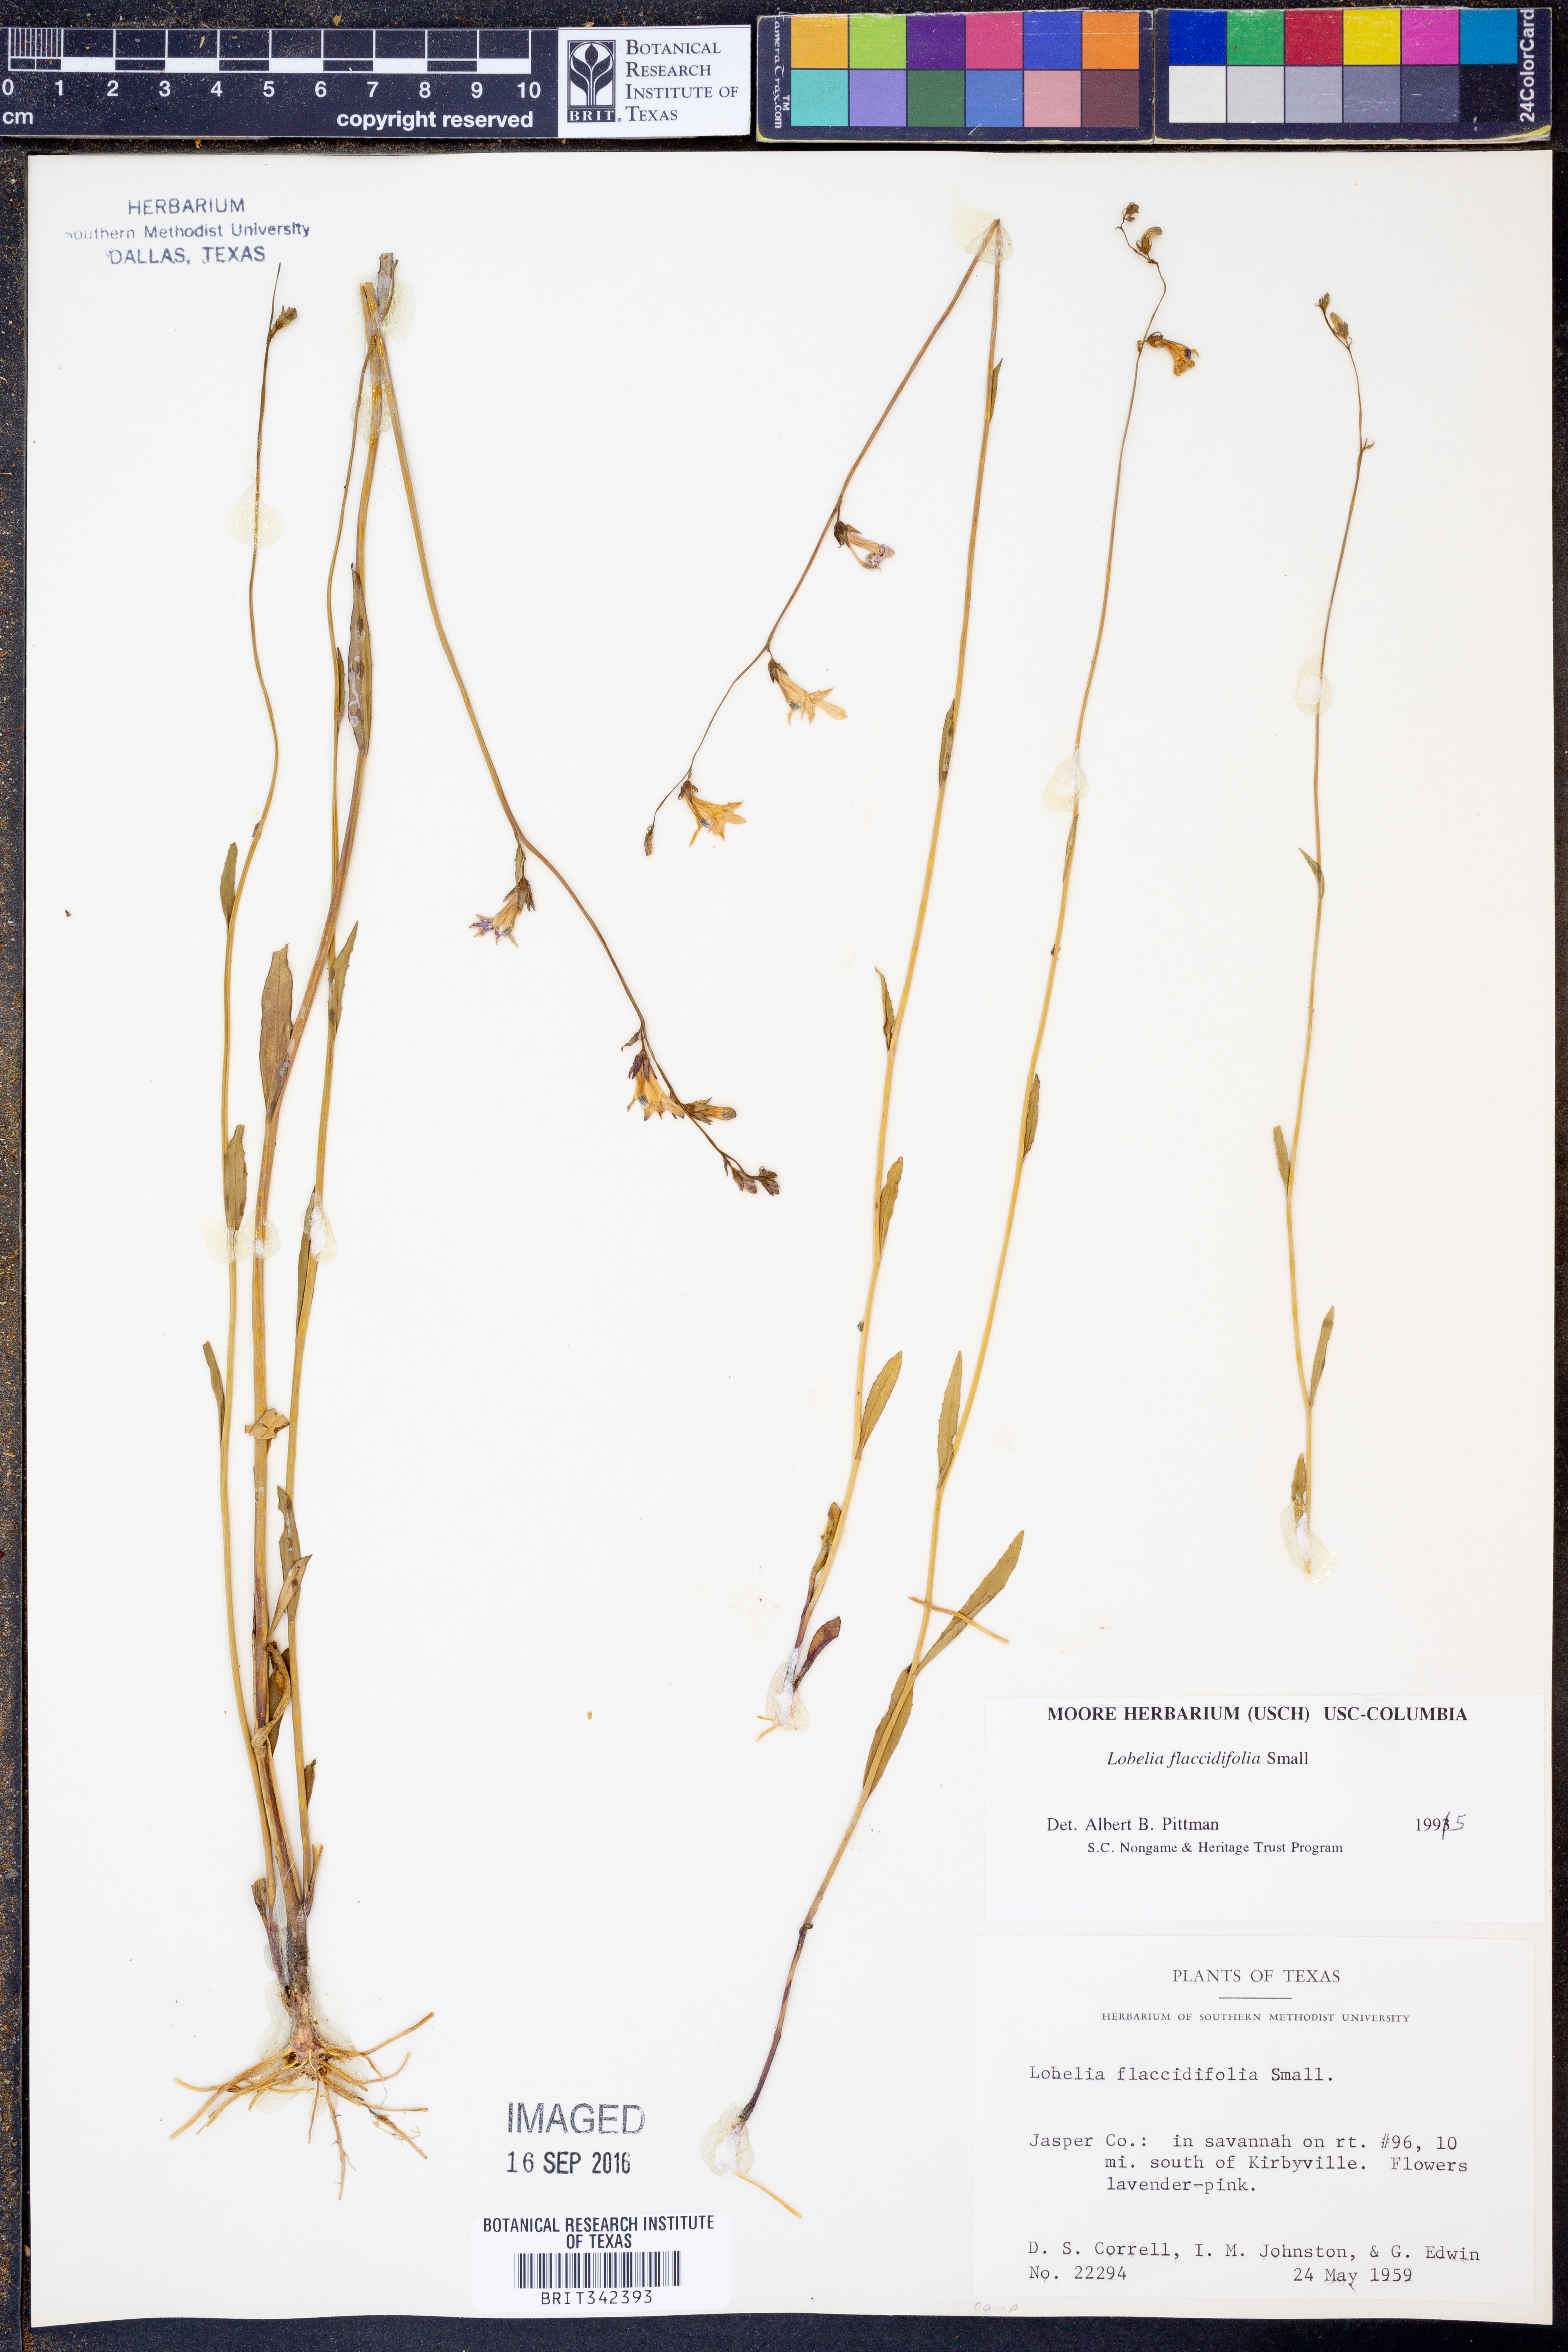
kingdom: Plantae
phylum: Tracheophyta
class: Magnoliopsida
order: Asterales
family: Campanulaceae
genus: Lobelia
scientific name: Lobelia flaccidifolia
